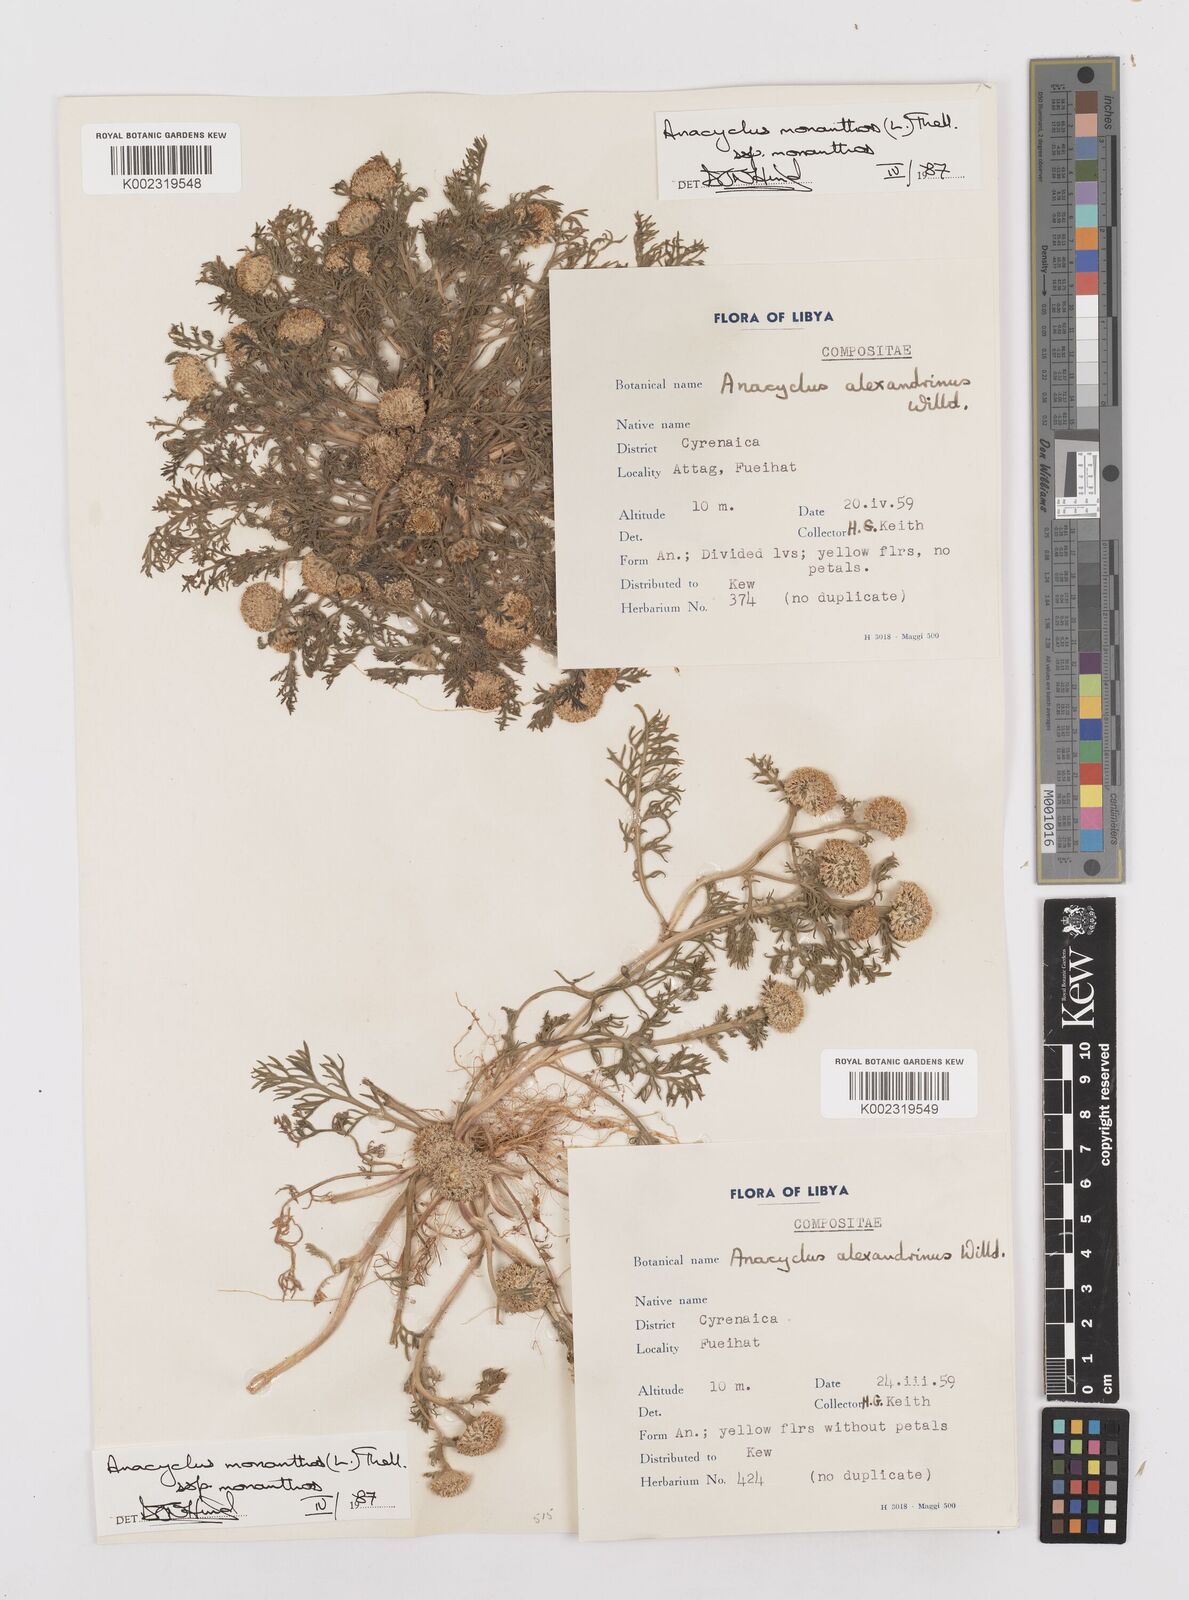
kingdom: Plantae
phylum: Tracheophyta
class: Magnoliopsida
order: Asterales
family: Asteraceae
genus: Anacyclus
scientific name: Anacyclus monanthos
